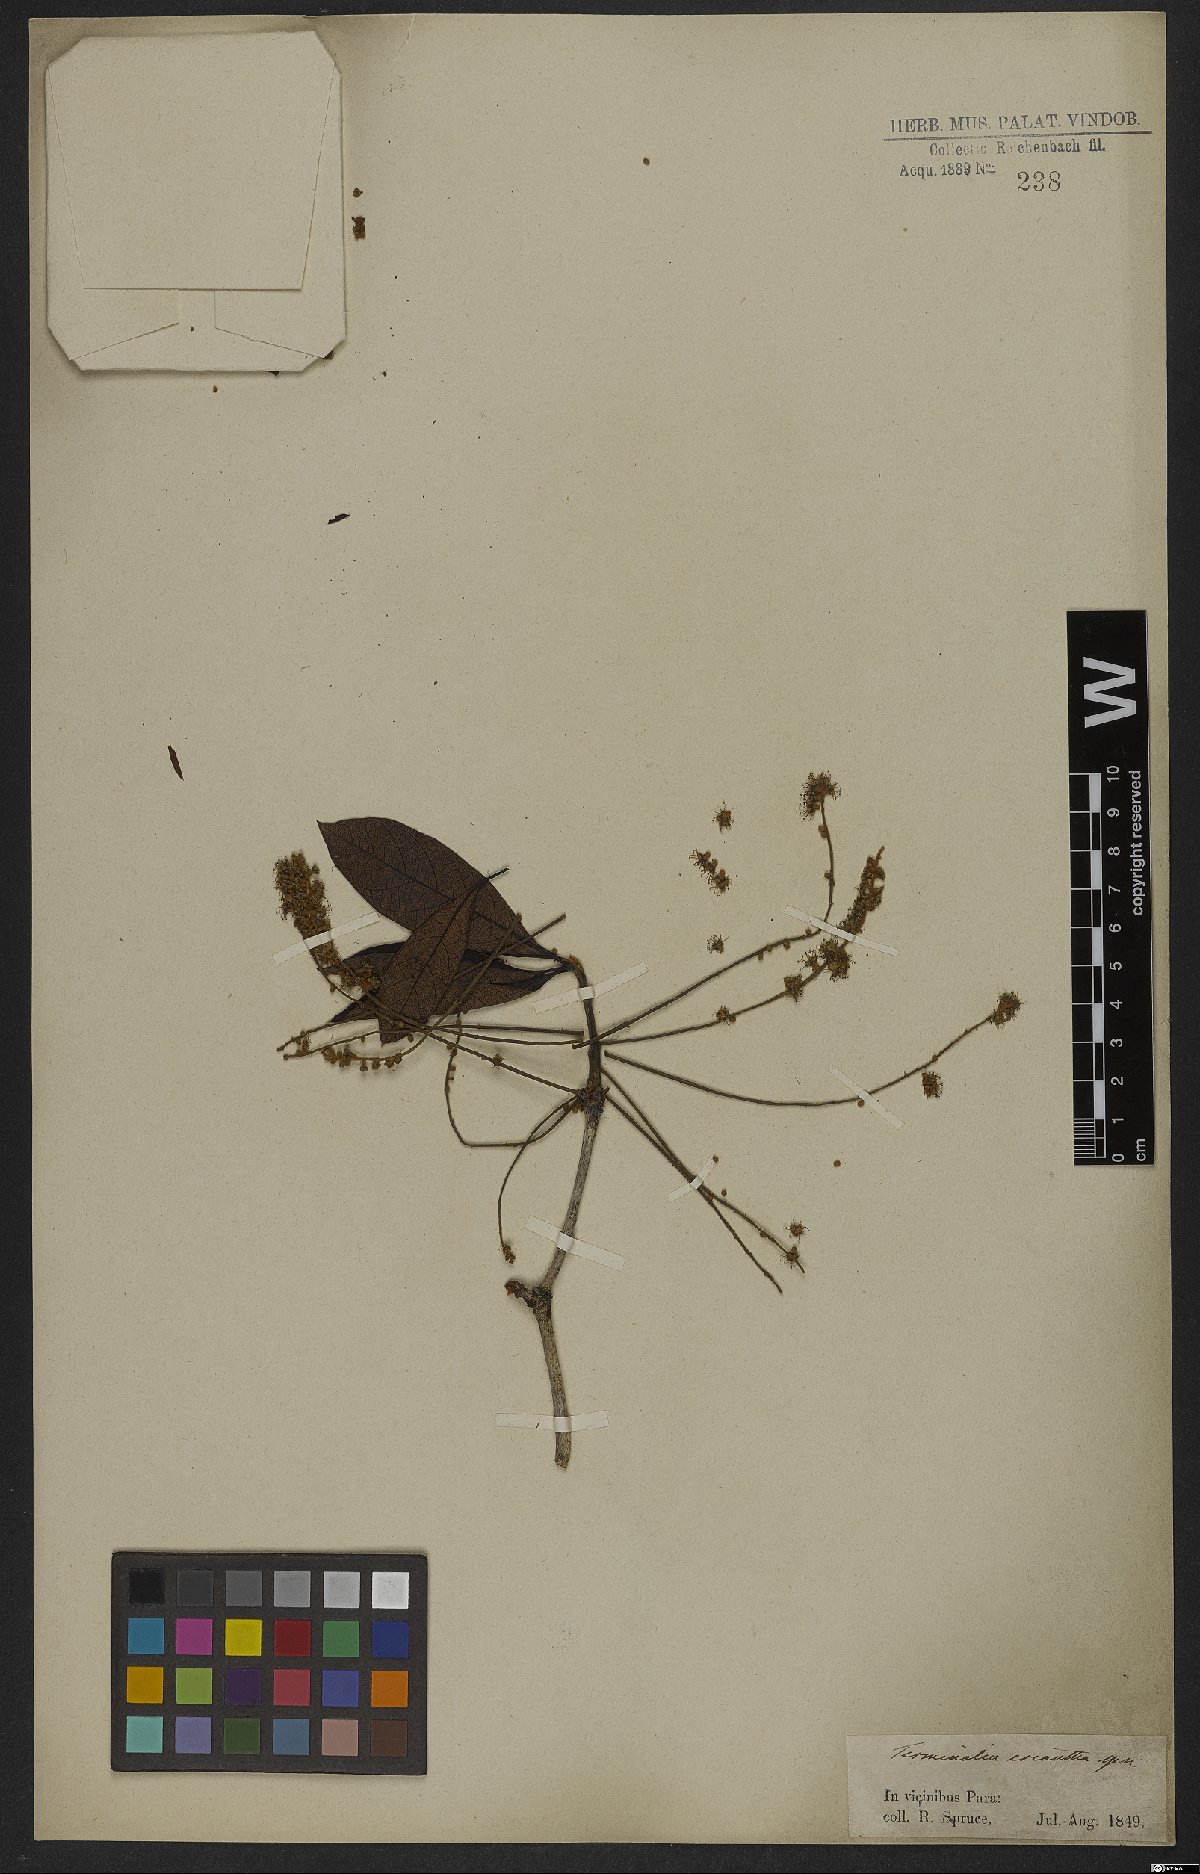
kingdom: Plantae
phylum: Tracheophyta
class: Magnoliopsida
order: Myrtales
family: Combretaceae
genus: Terminalia
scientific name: Terminalia dichotoma
